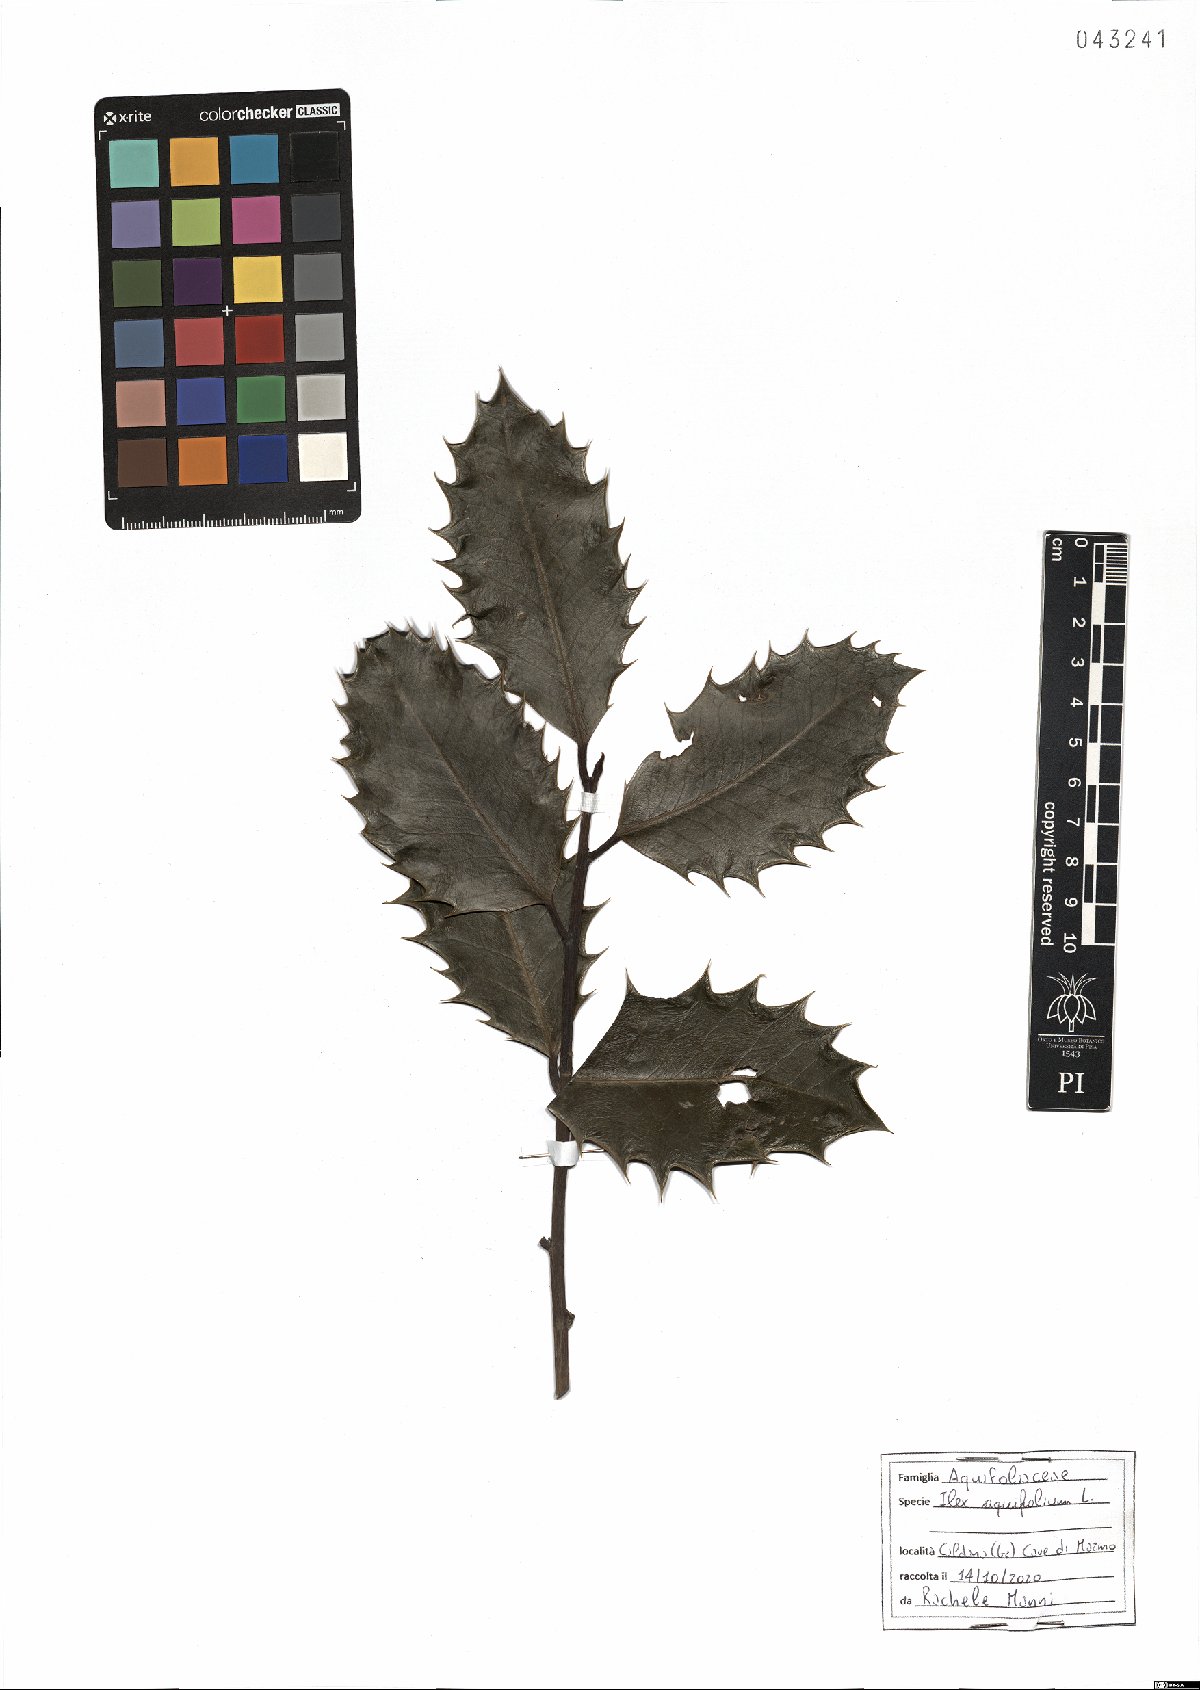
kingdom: Plantae
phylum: Tracheophyta
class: Magnoliopsida
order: Aquifoliales
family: Aquifoliaceae
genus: Ilex
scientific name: Ilex aquifolium
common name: English holly
